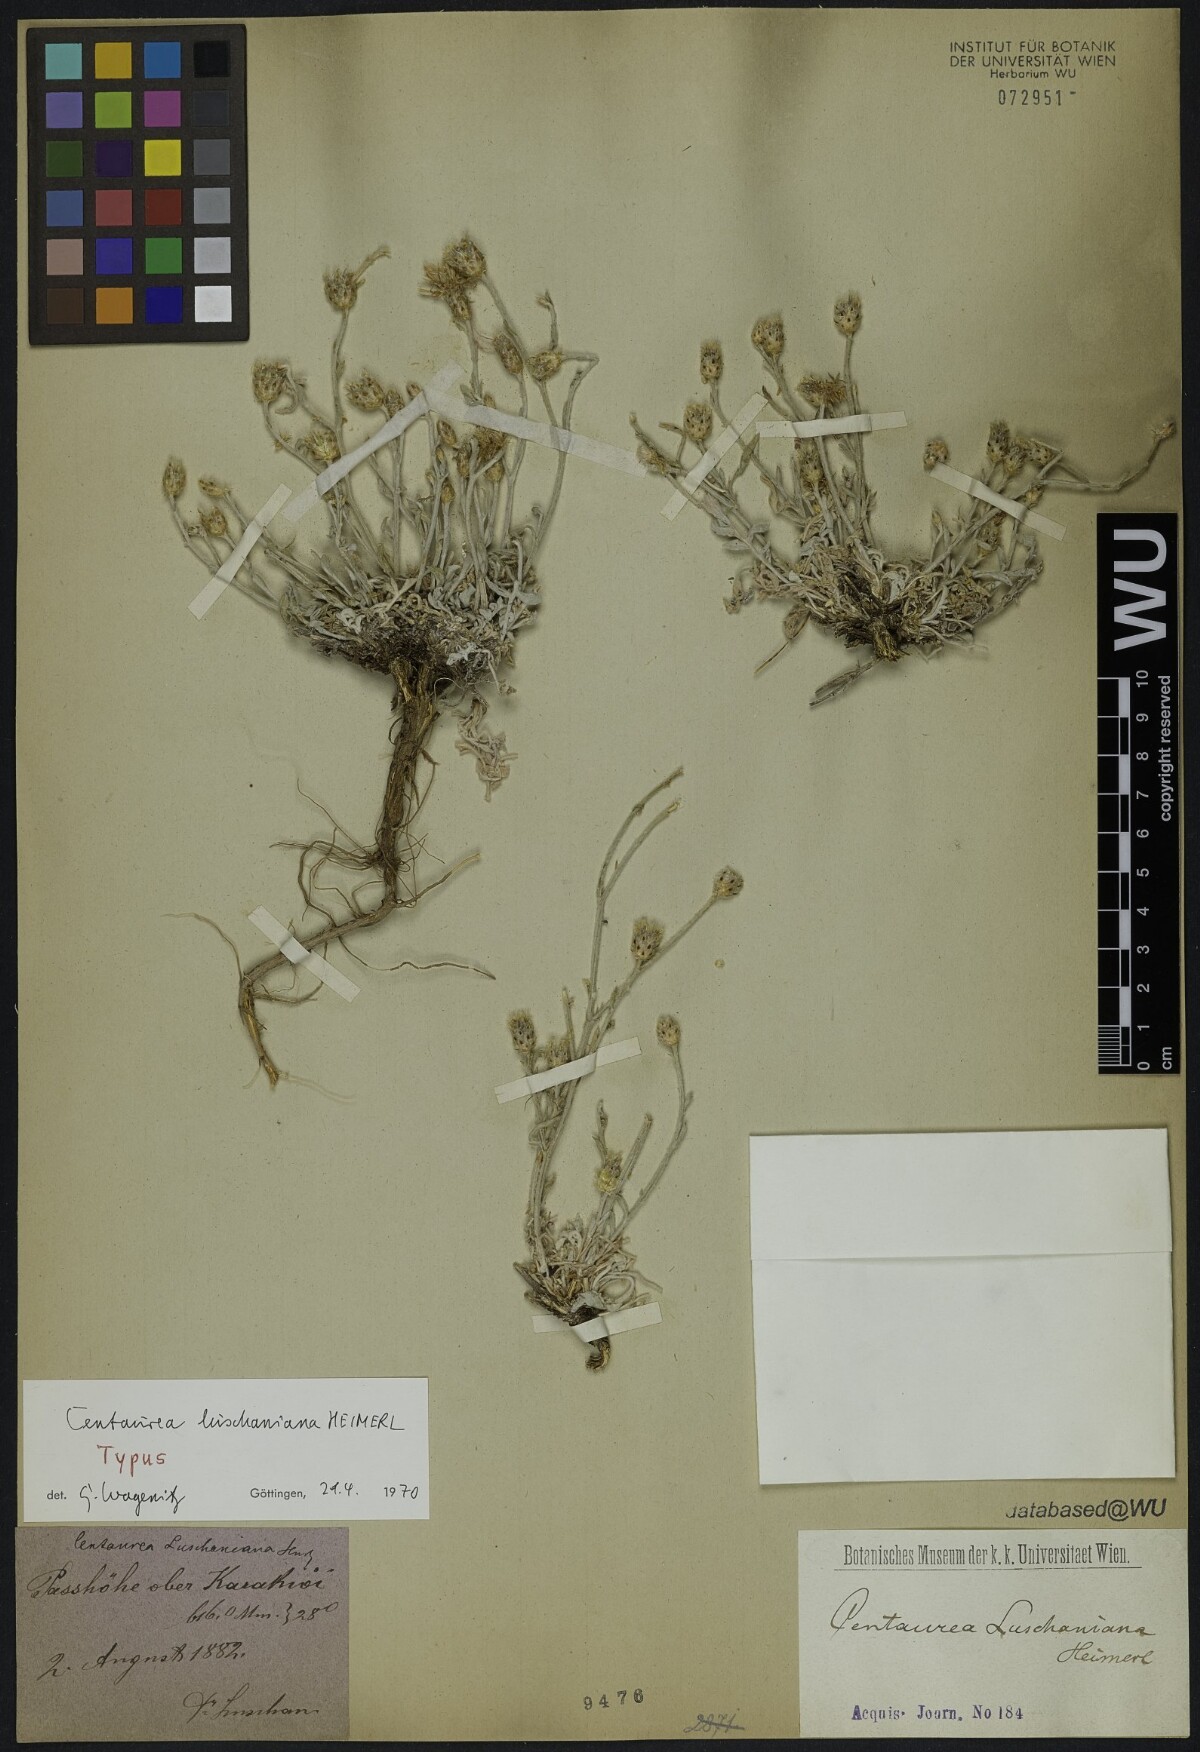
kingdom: Plantae
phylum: Tracheophyta
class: Magnoliopsida
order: Asterales
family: Asteraceae
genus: Centaurea
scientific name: Centaurea luschaniana
